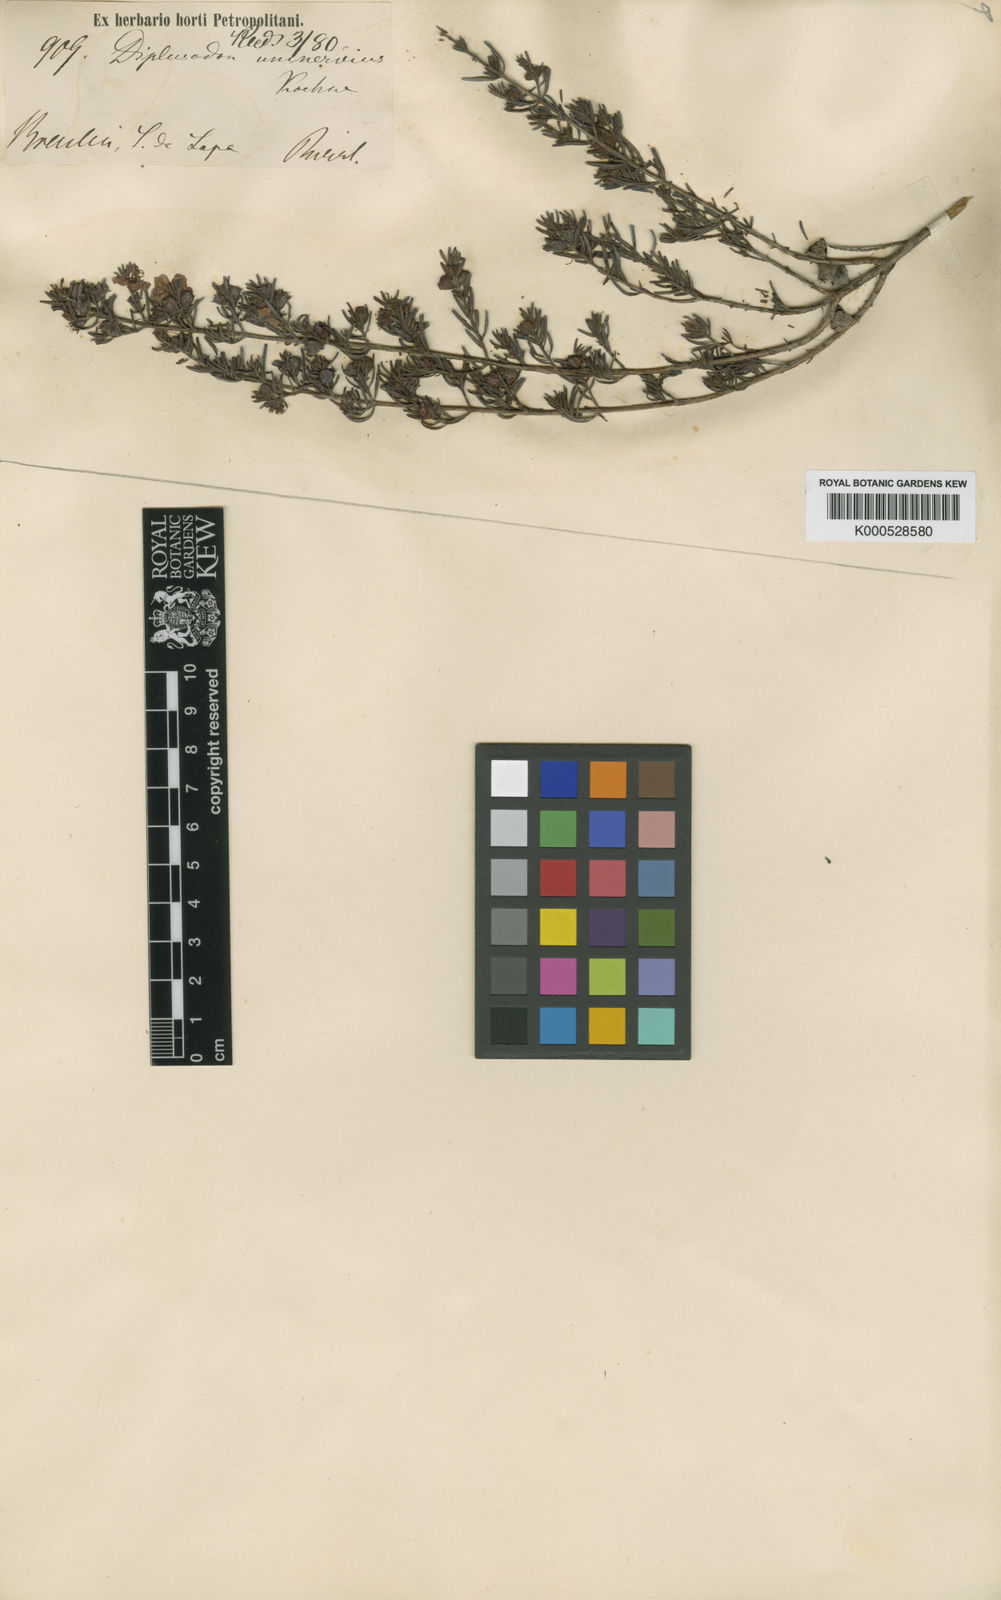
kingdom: Plantae
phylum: Tracheophyta
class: Magnoliopsida
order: Myrtales
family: Lythraceae
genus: Diplusodon
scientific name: Diplusodon uninervius
